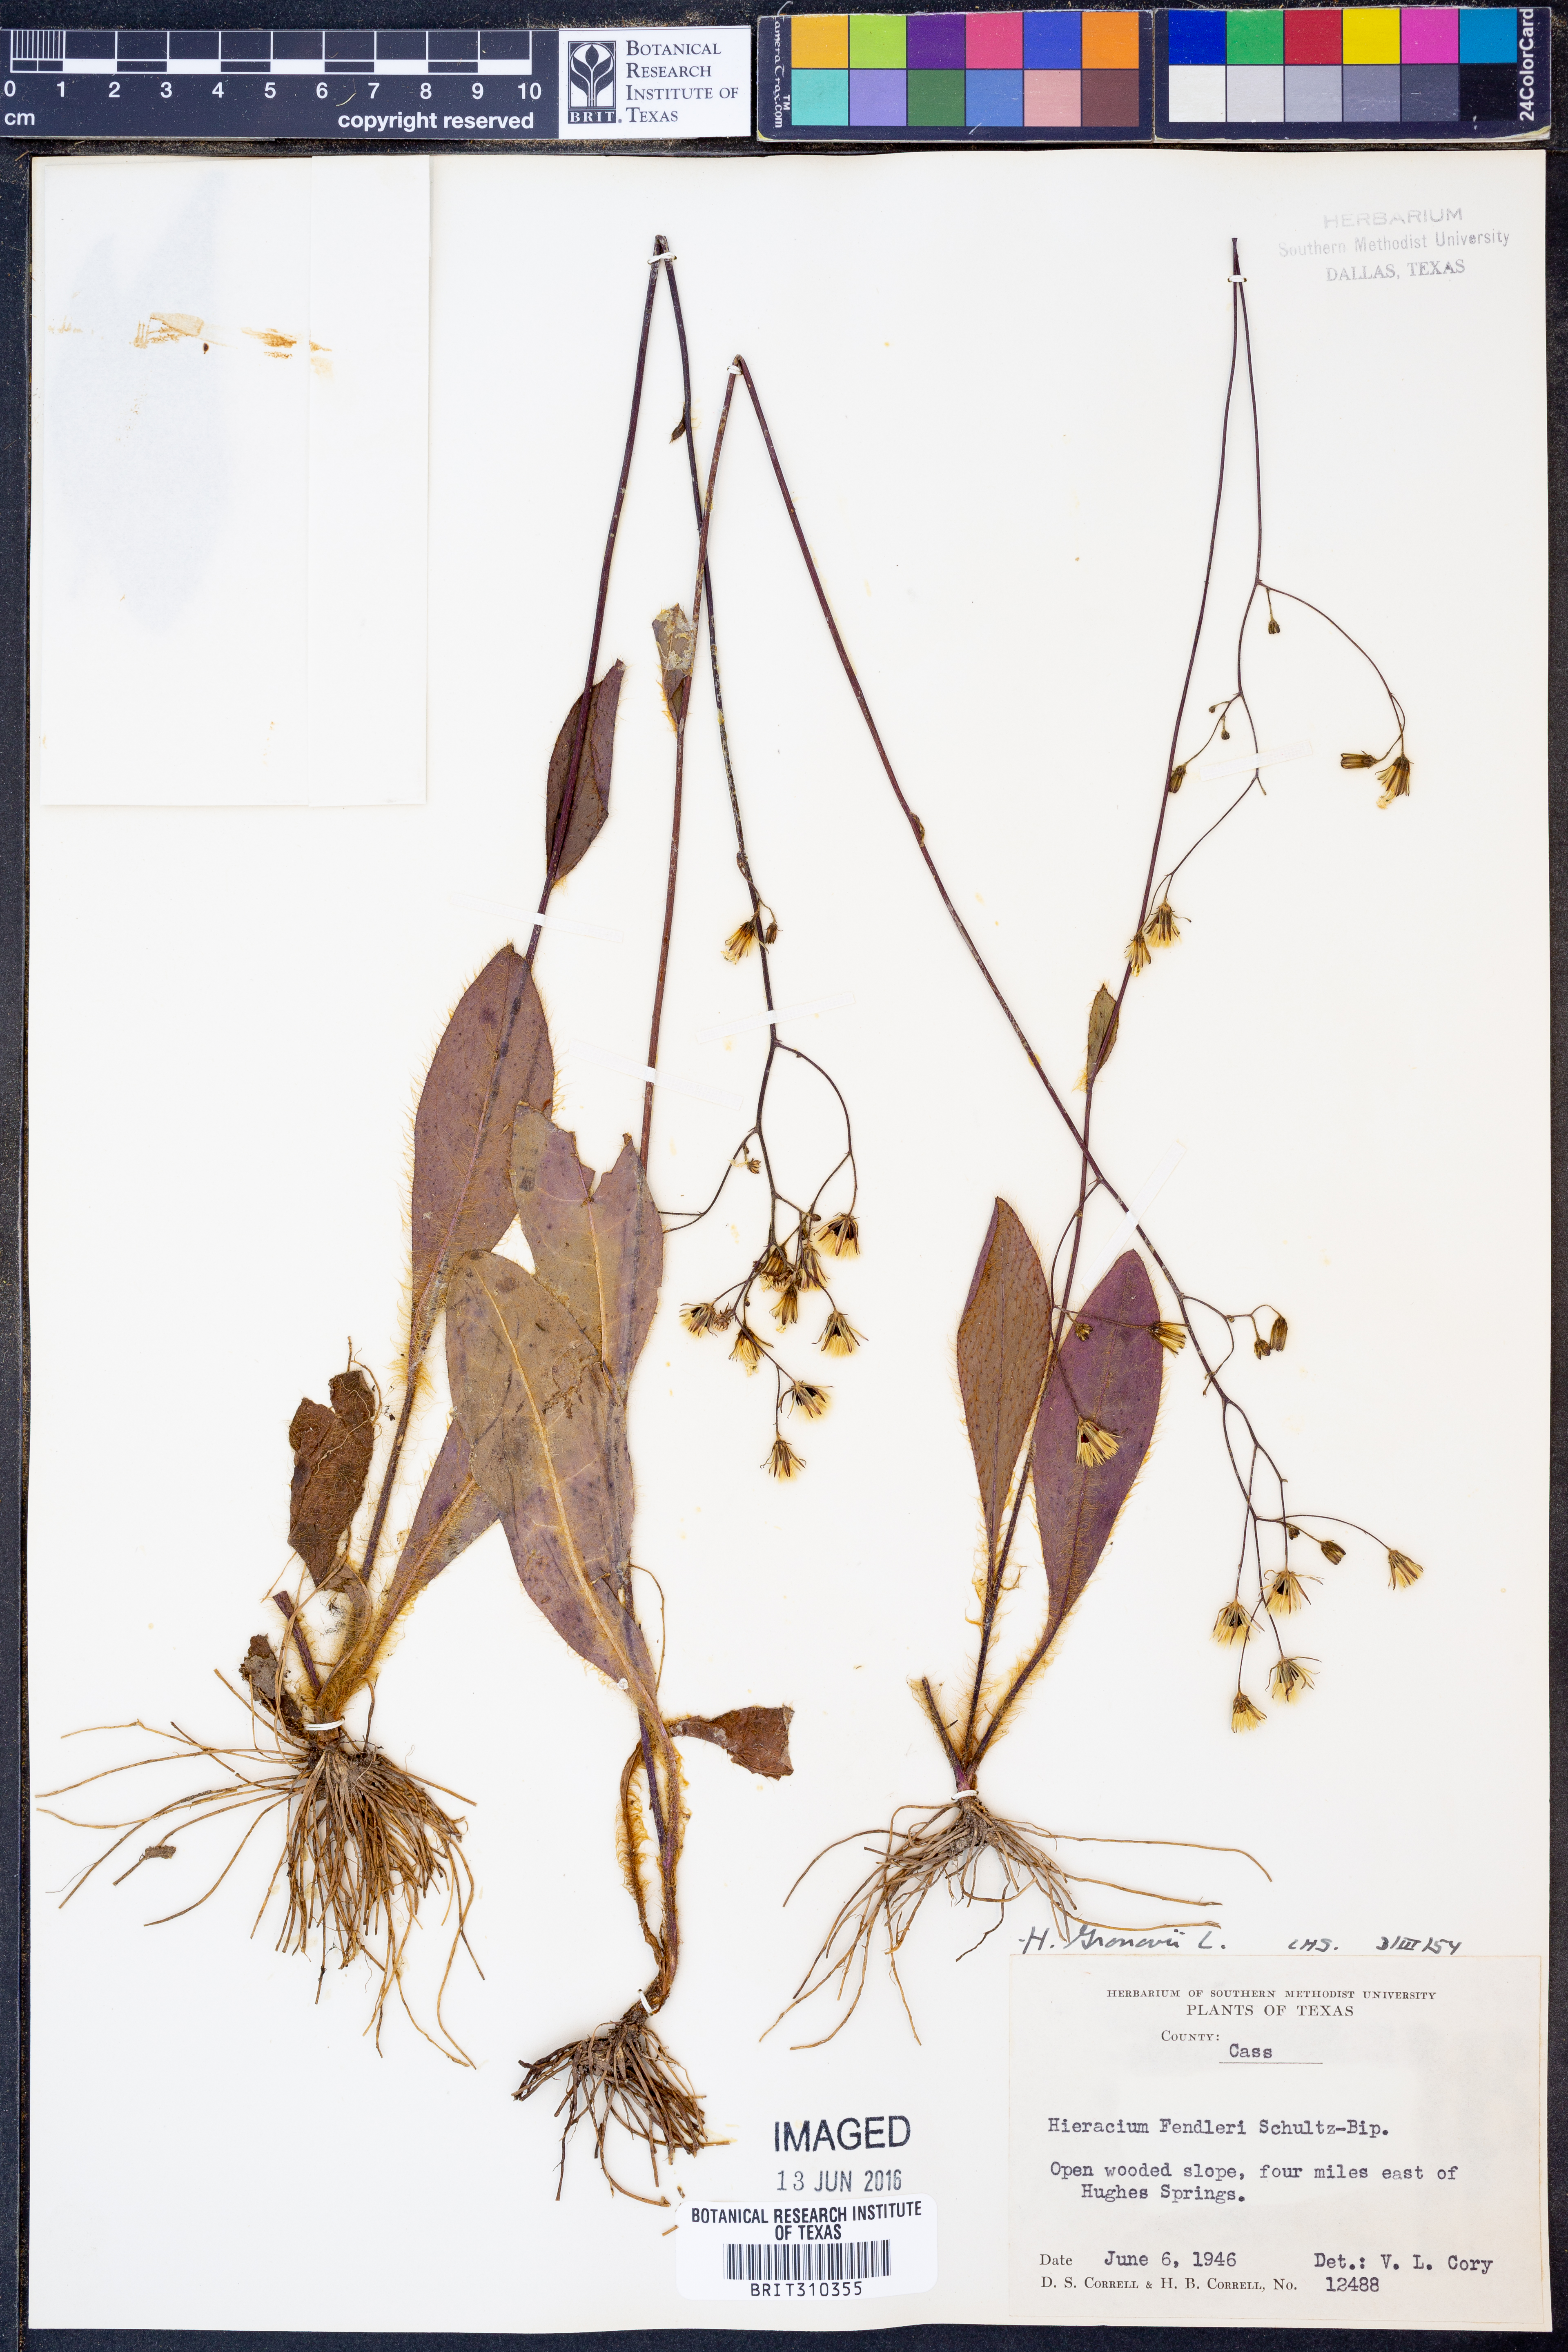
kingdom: Plantae
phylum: Tracheophyta
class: Magnoliopsida
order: Asterales
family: Asteraceae
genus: Hieracium
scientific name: Hieracium gronovii
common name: Beaked hawkweed
